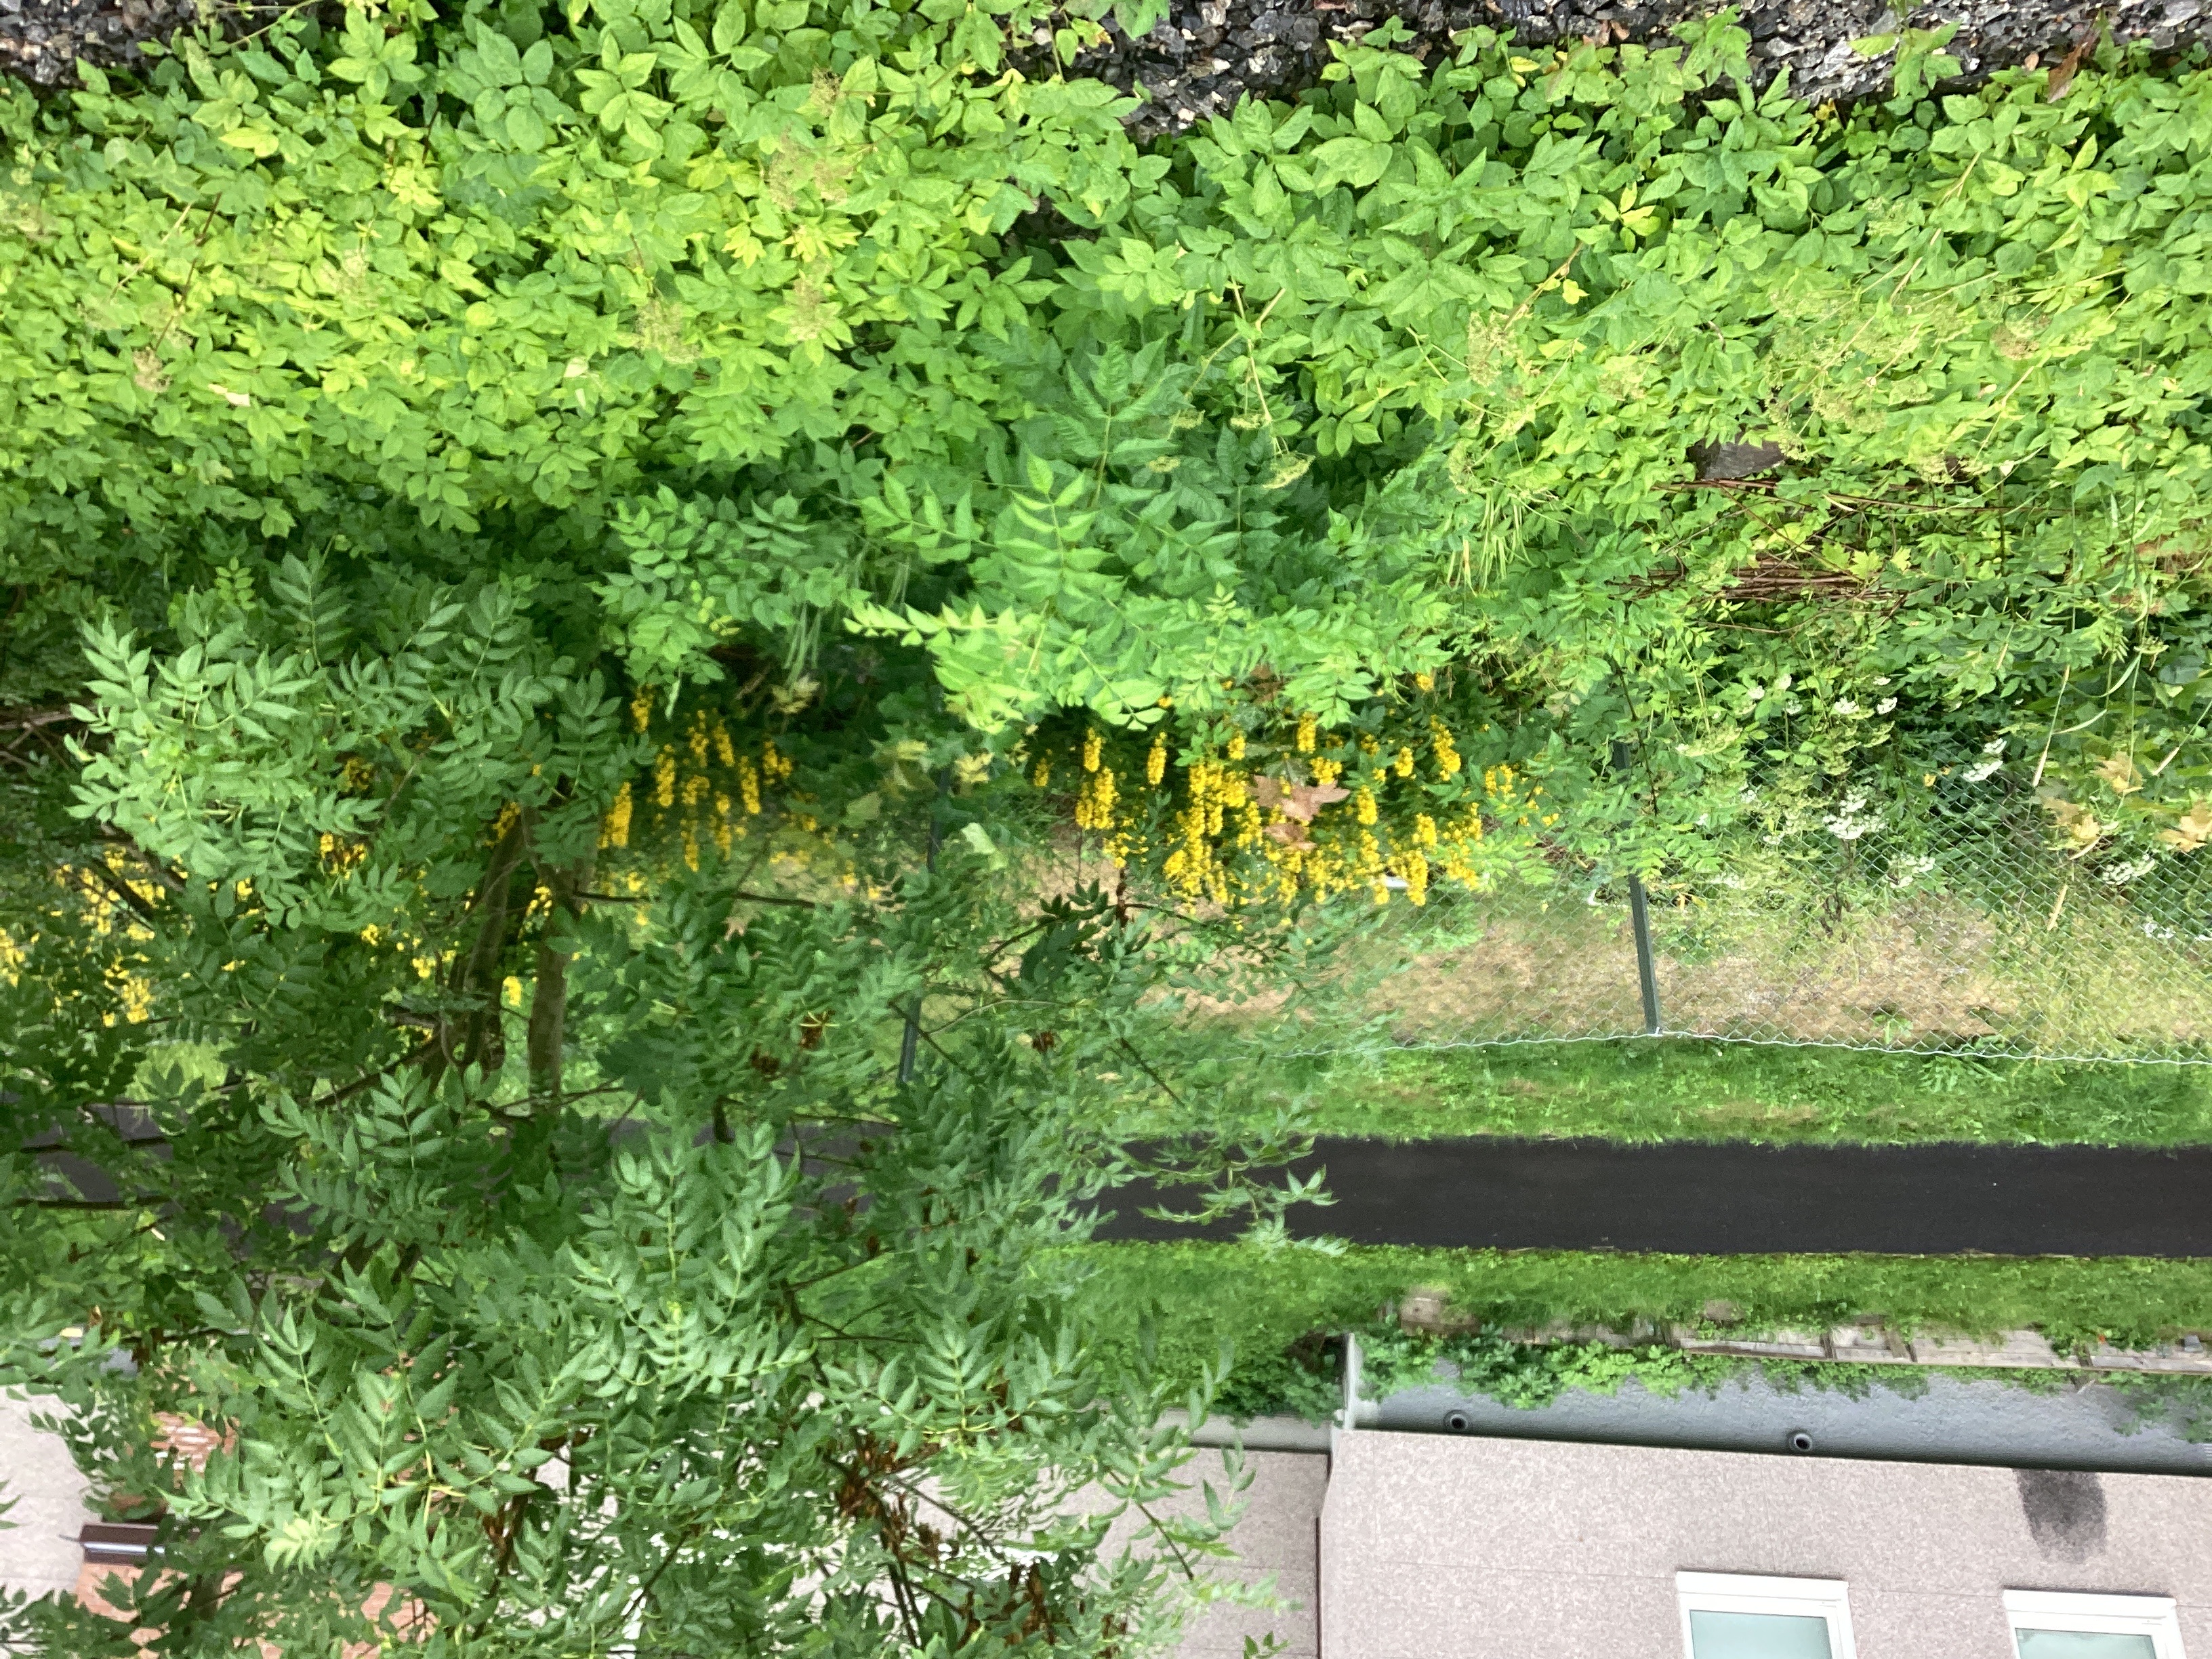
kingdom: Plantae
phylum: Tracheophyta
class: Magnoliopsida
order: Ericales
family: Primulaceae
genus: Lysimachia
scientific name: Lysimachia punctata
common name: fagerfredløs
